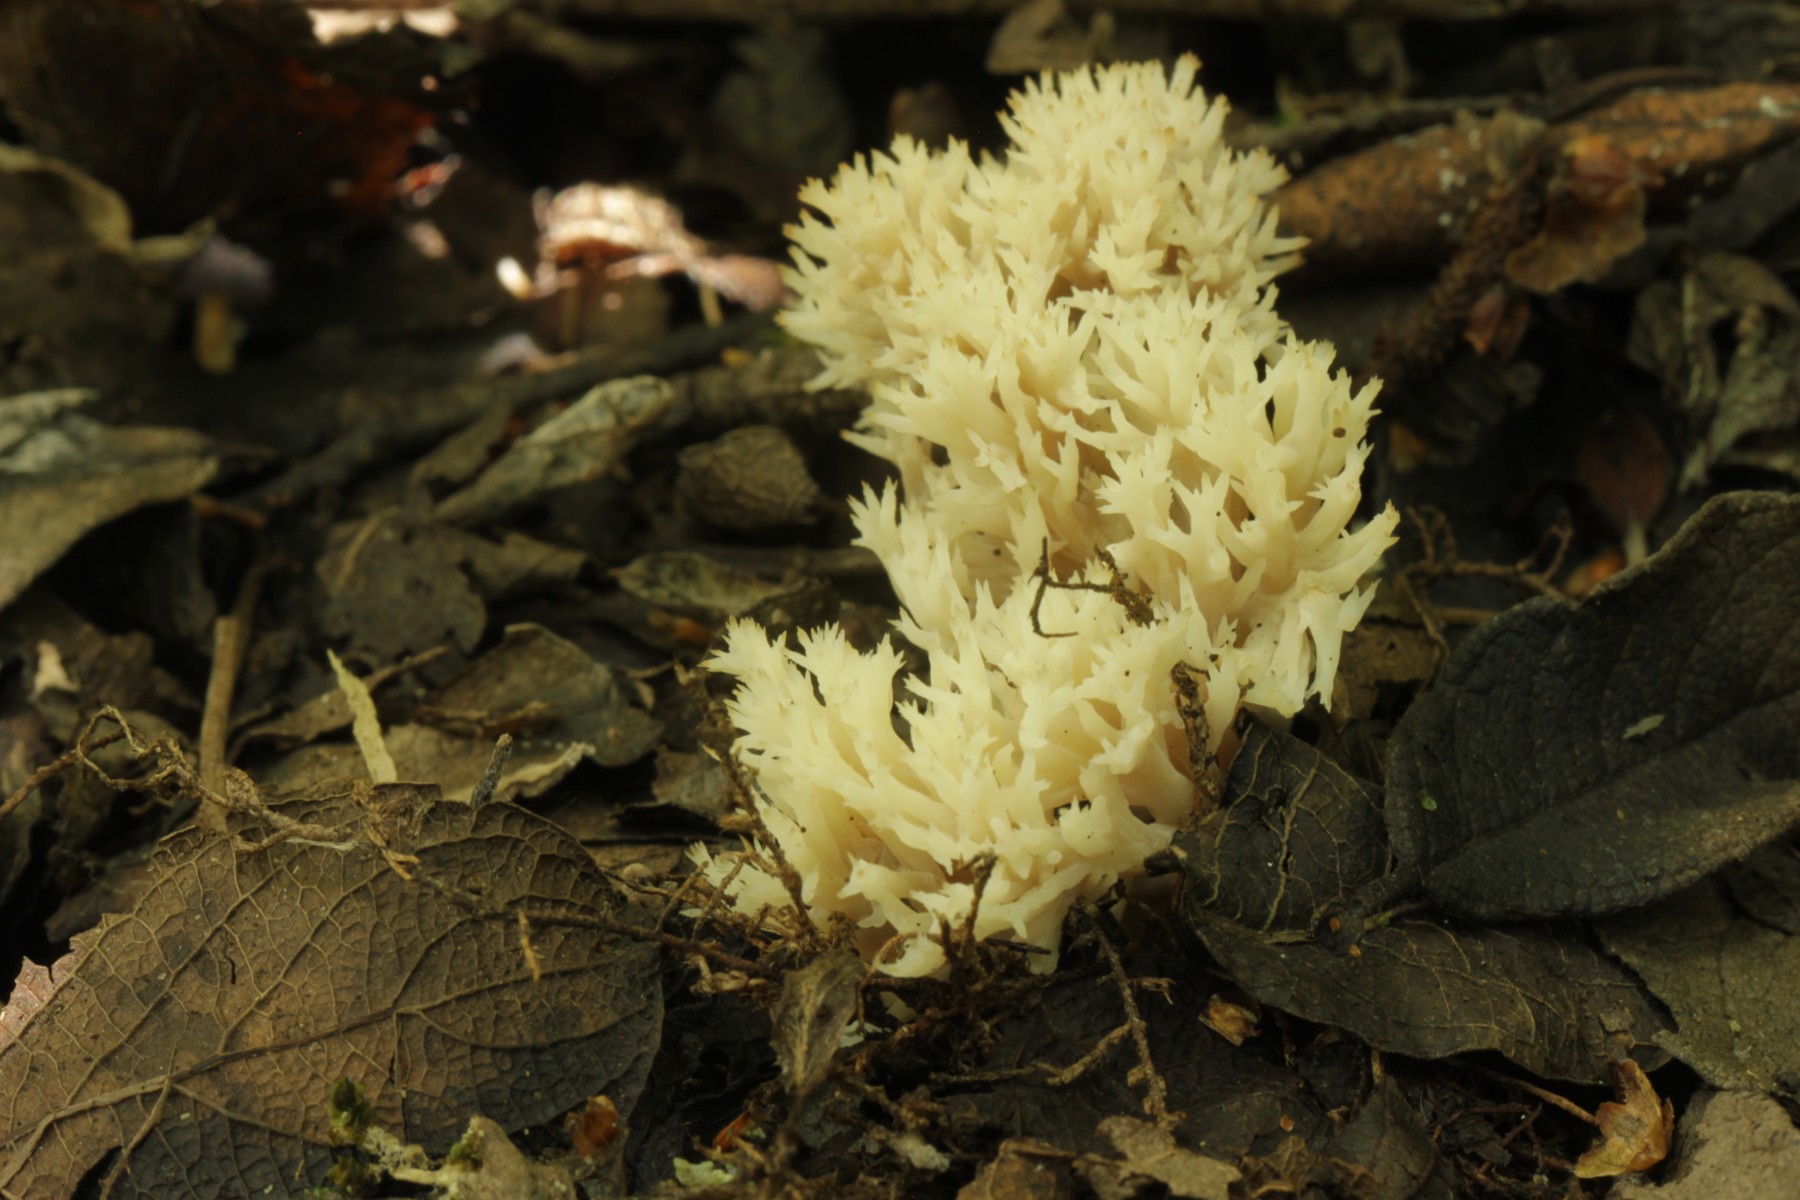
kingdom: Fungi
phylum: Basidiomycota
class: Agaricomycetes
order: Cantharellales
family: Hydnaceae
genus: Clavulina
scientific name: Clavulina
